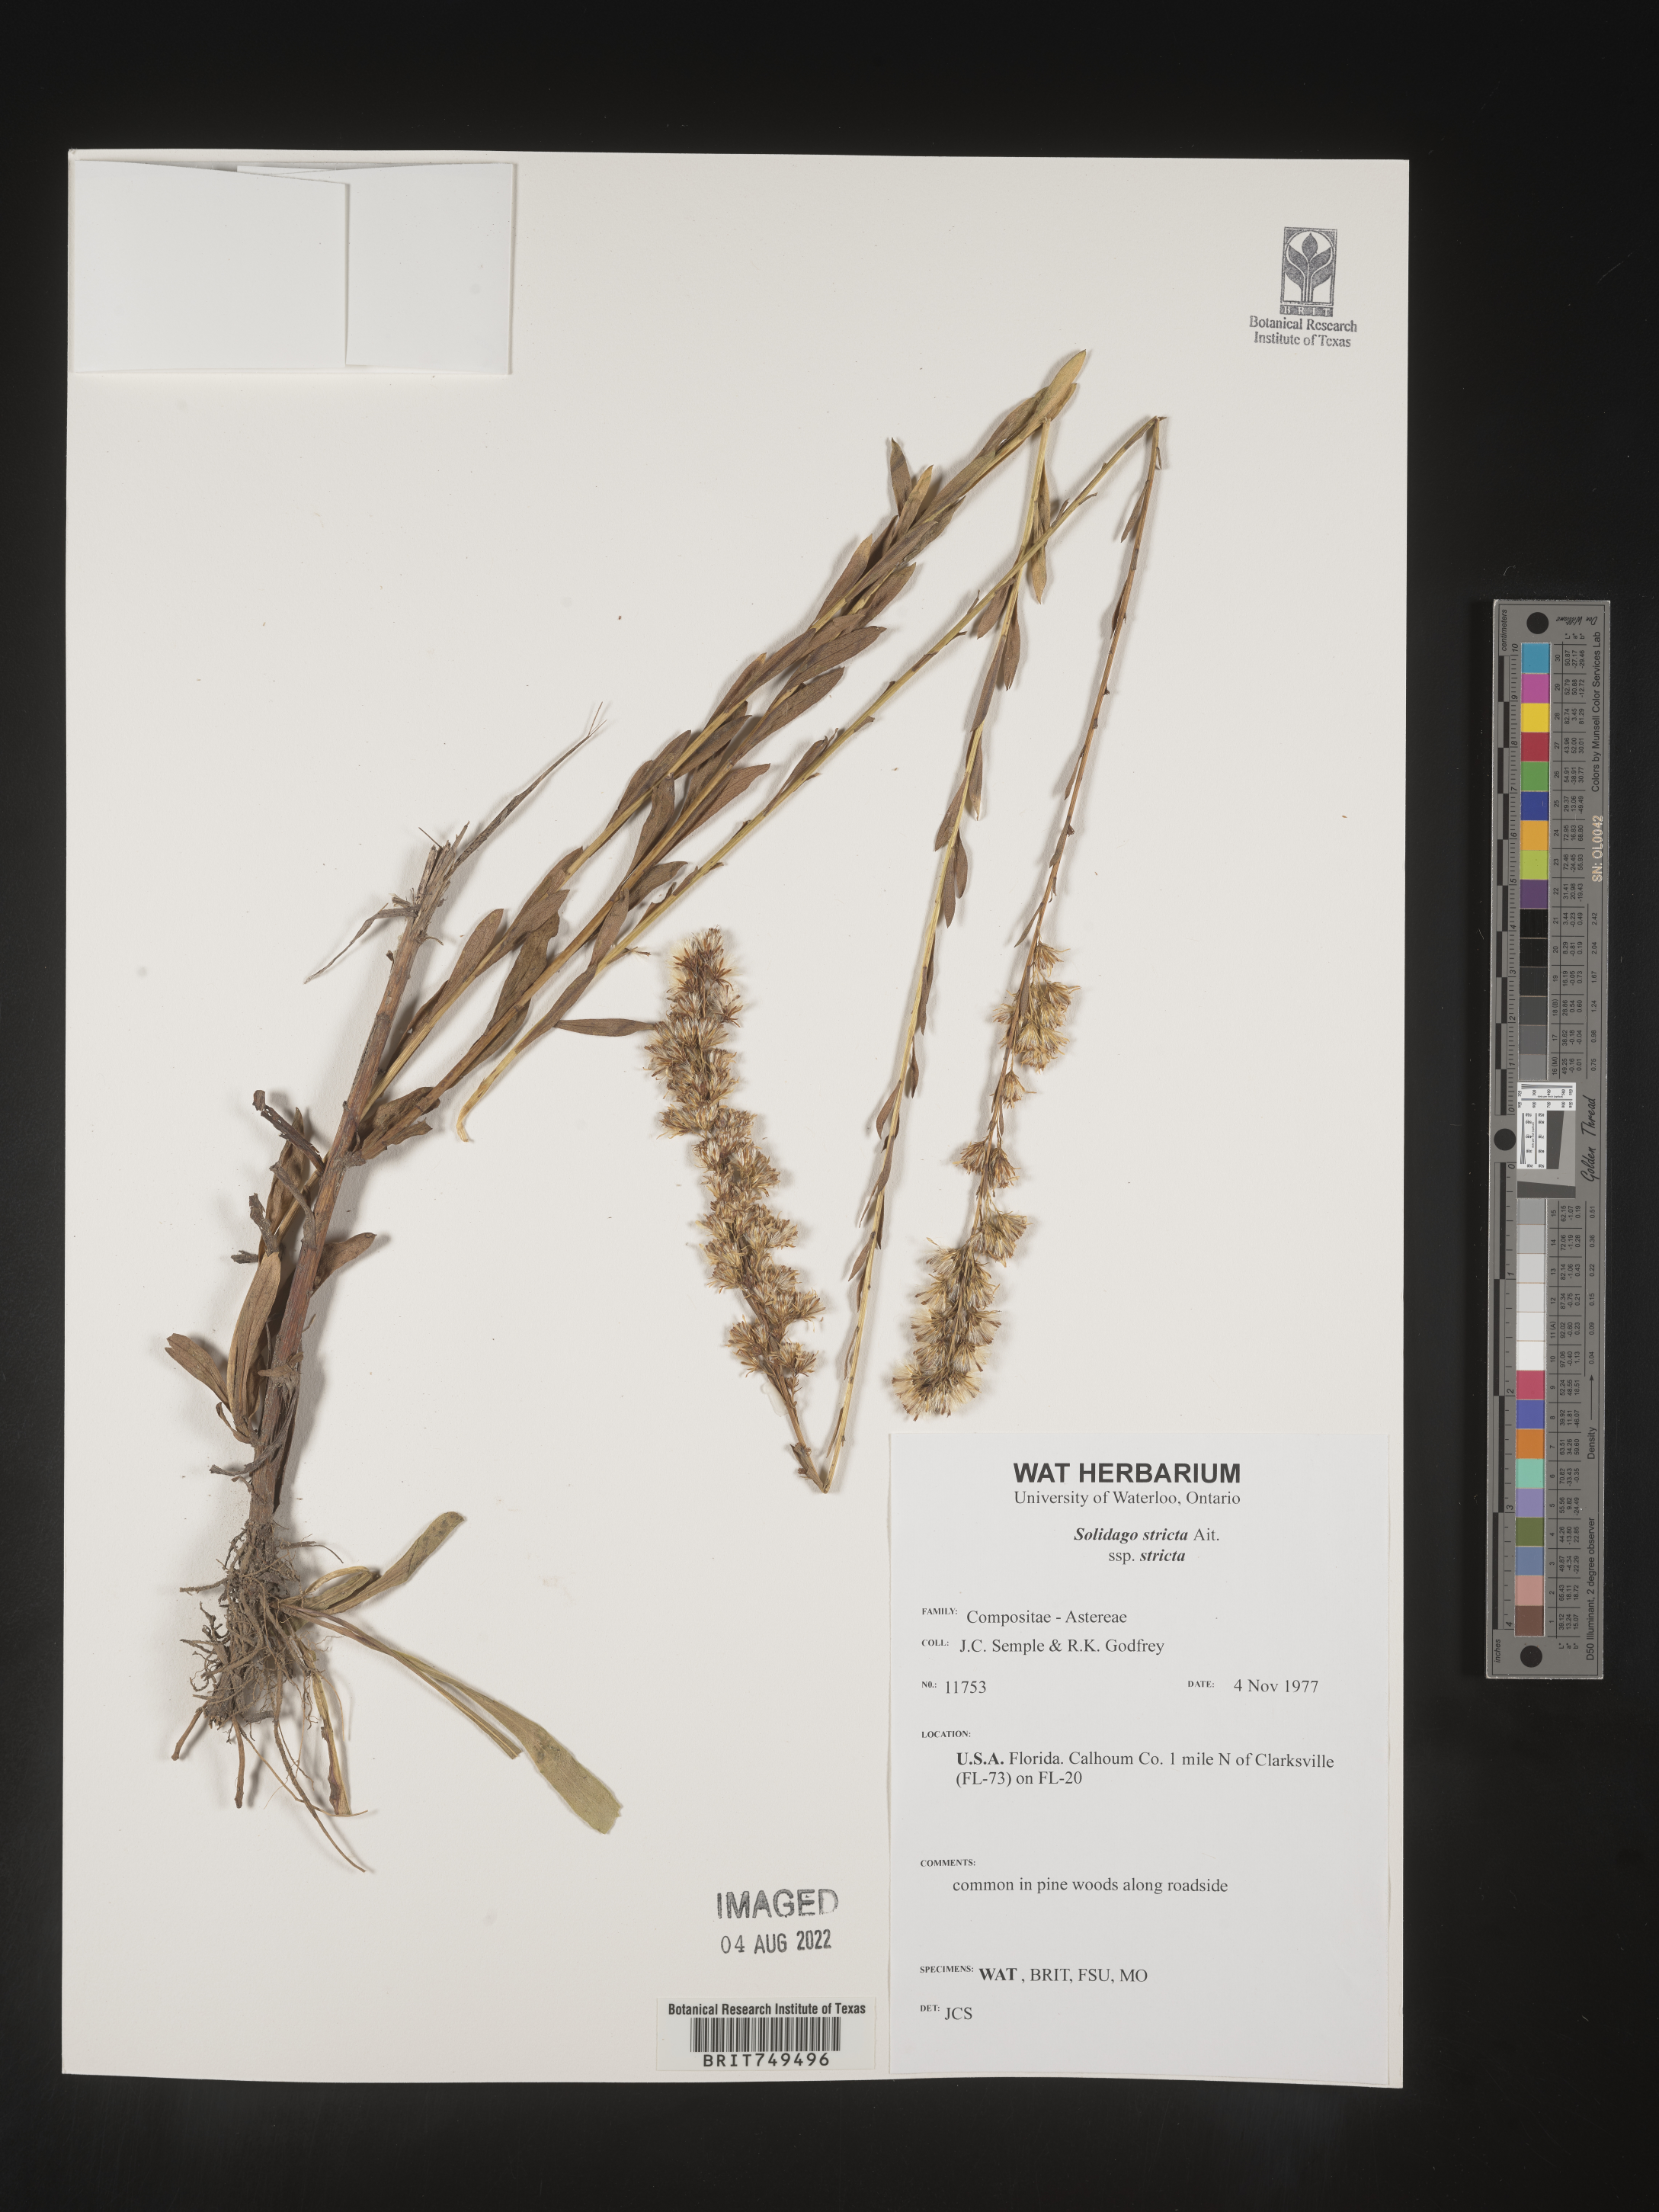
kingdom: Plantae
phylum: Tracheophyta
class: Magnoliopsida
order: Asterales
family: Asteraceae
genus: Solidago
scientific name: Solidago stricta
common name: Pine barren bog goldenrod
